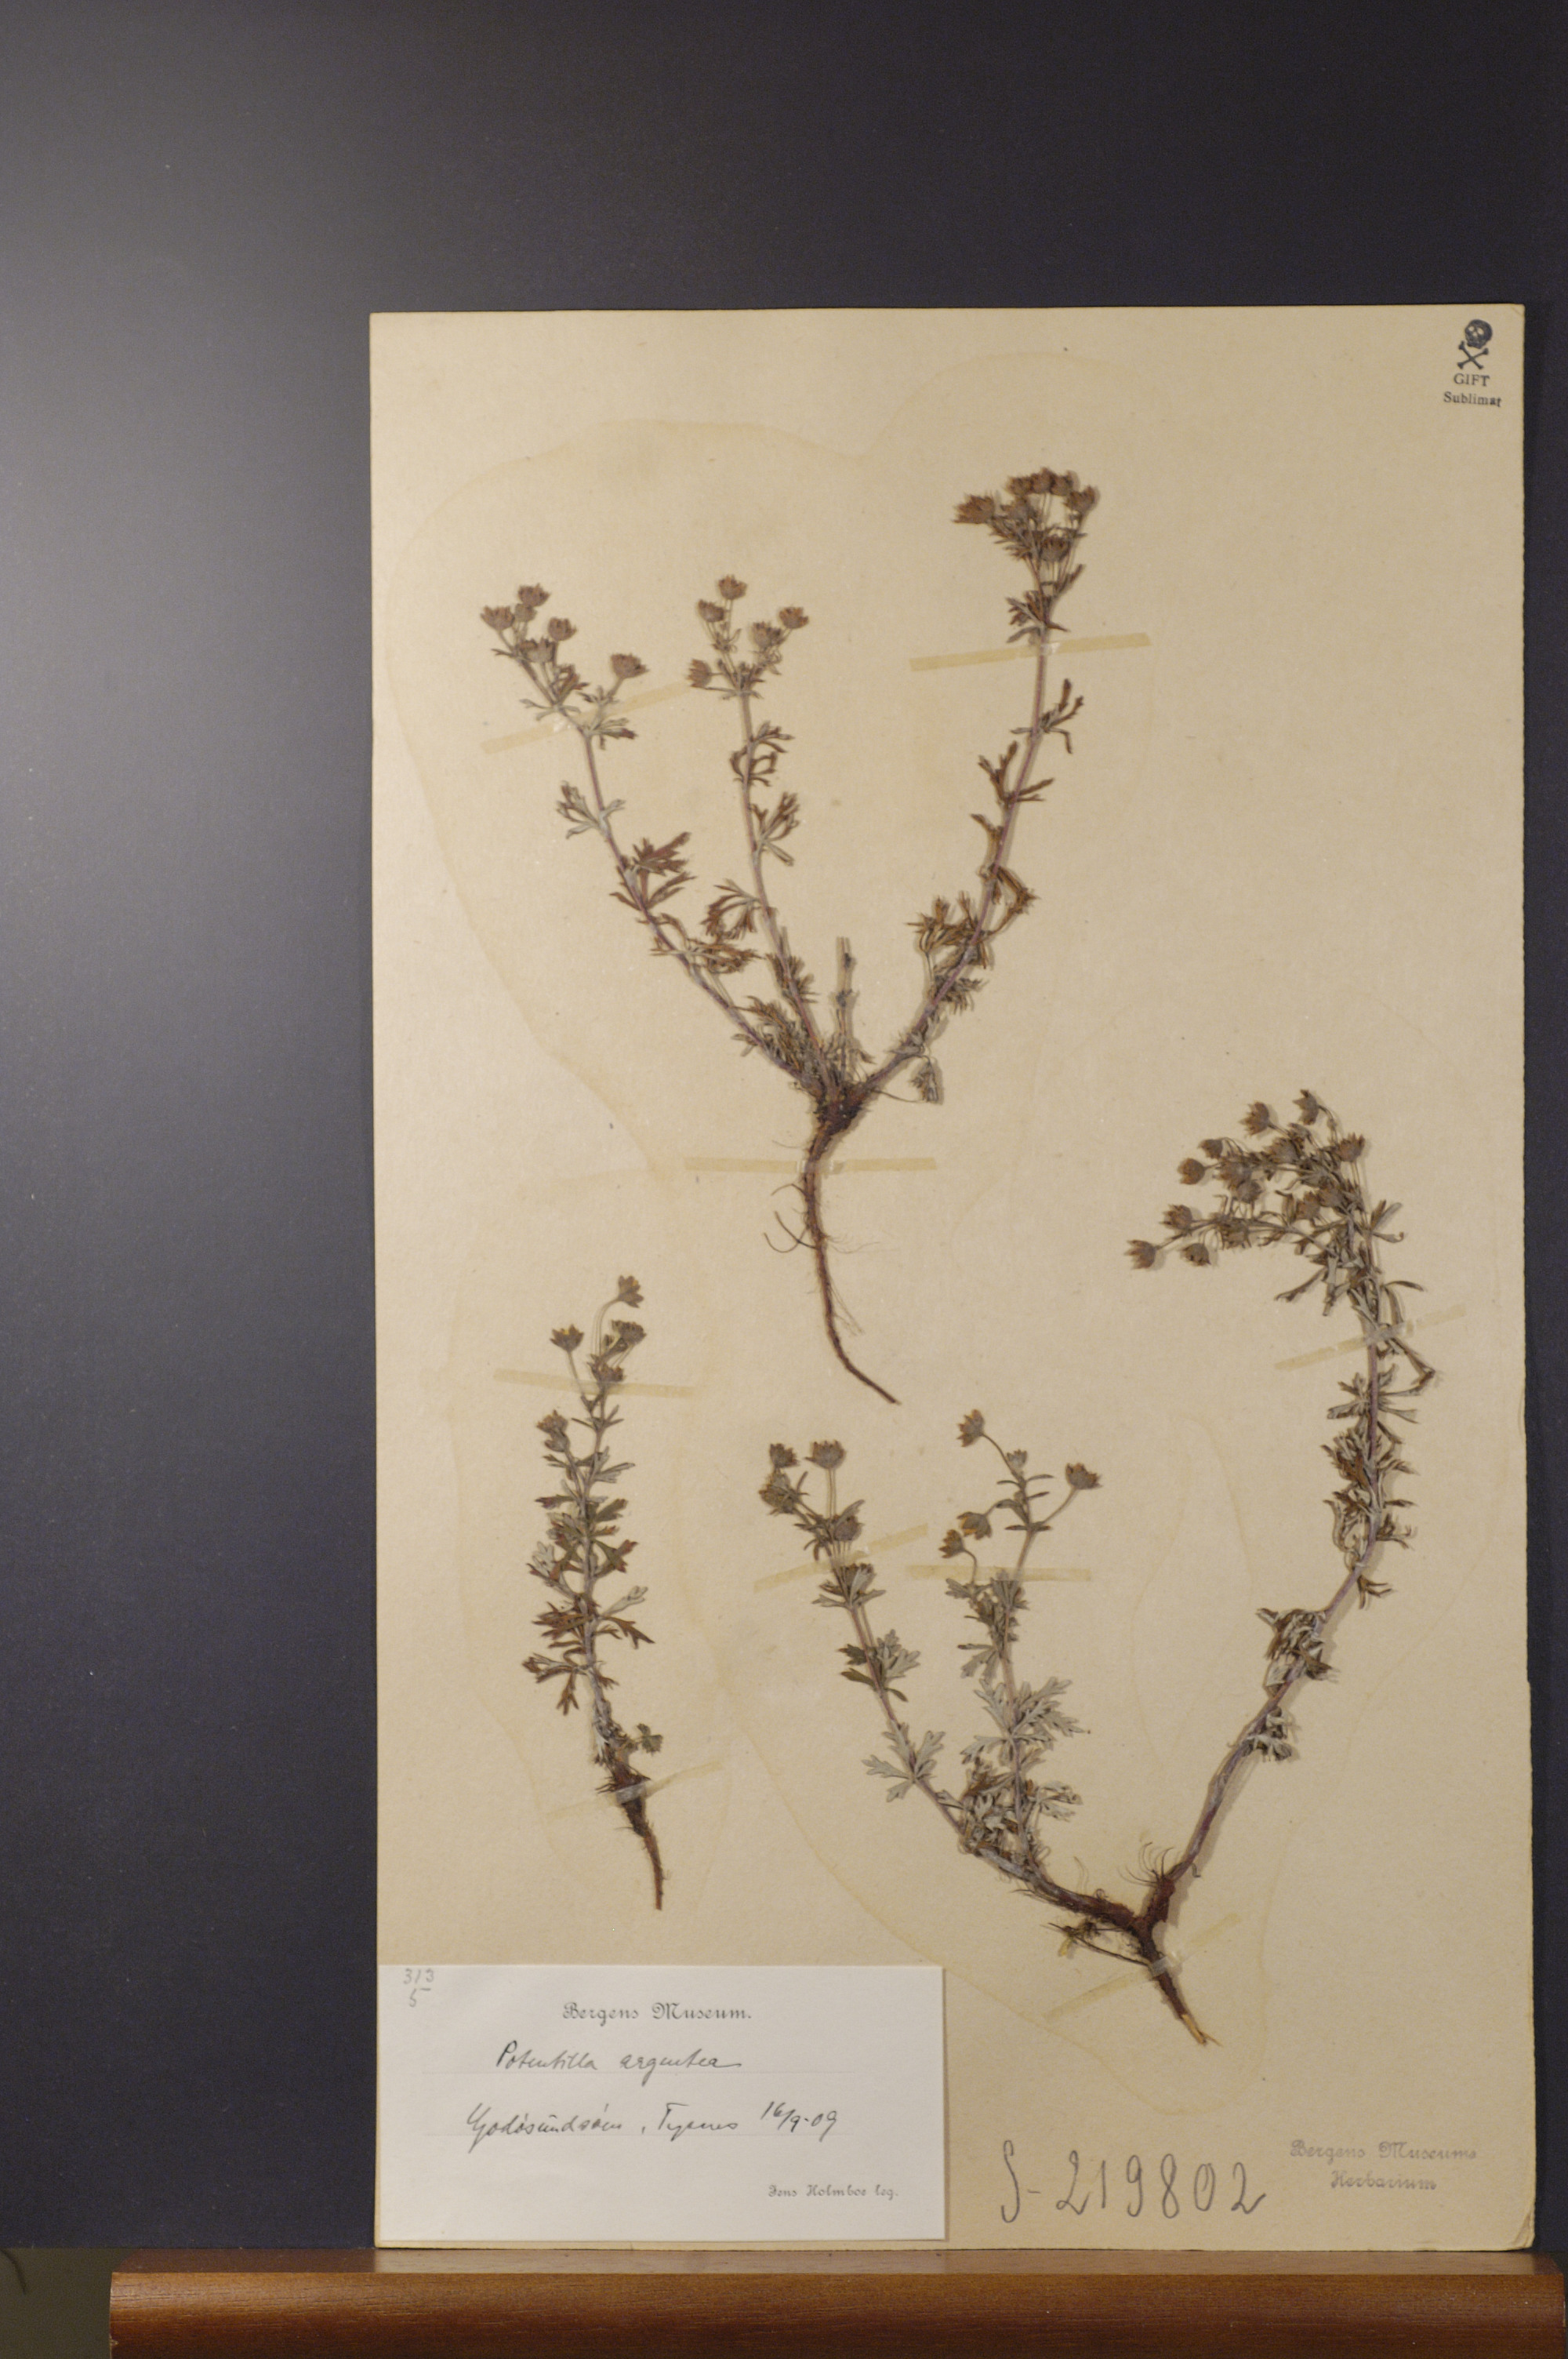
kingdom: Plantae
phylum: Tracheophyta
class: Magnoliopsida
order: Rosales
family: Rosaceae
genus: Potentilla
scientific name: Potentilla argentea
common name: Hoary cinquefoil
